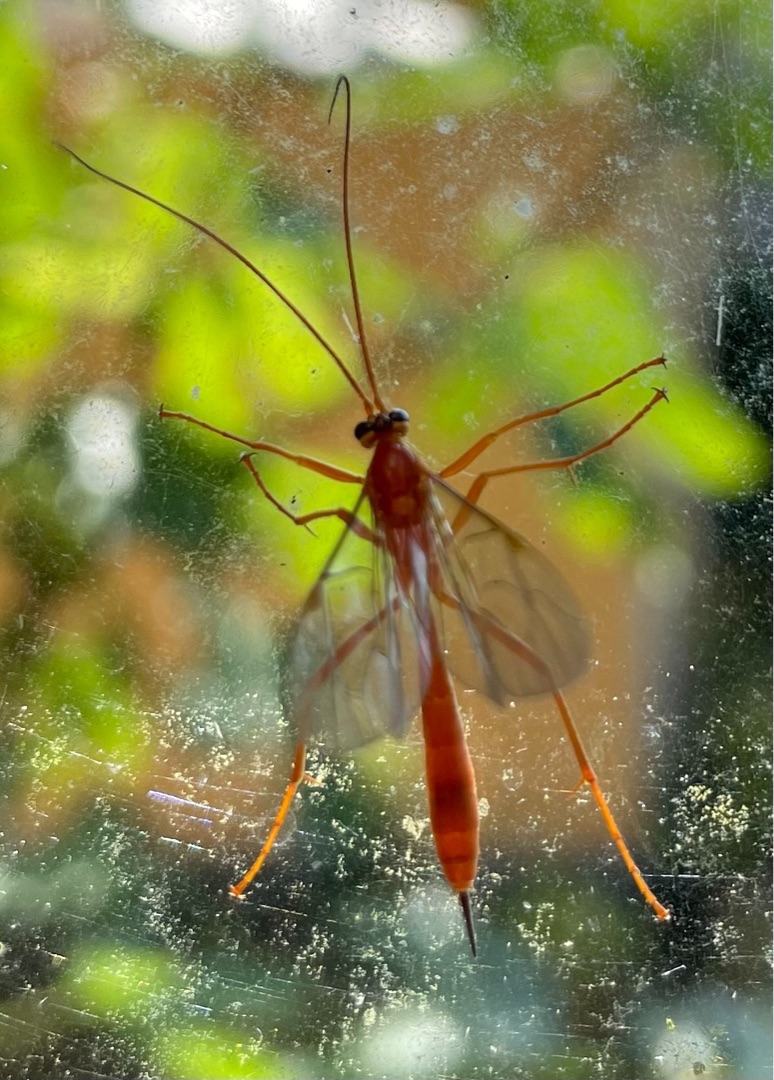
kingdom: Animalia
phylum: Arthropoda
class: Insecta
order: Hymenoptera
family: Ichneumonidae
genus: Netelia
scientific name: Netelia
